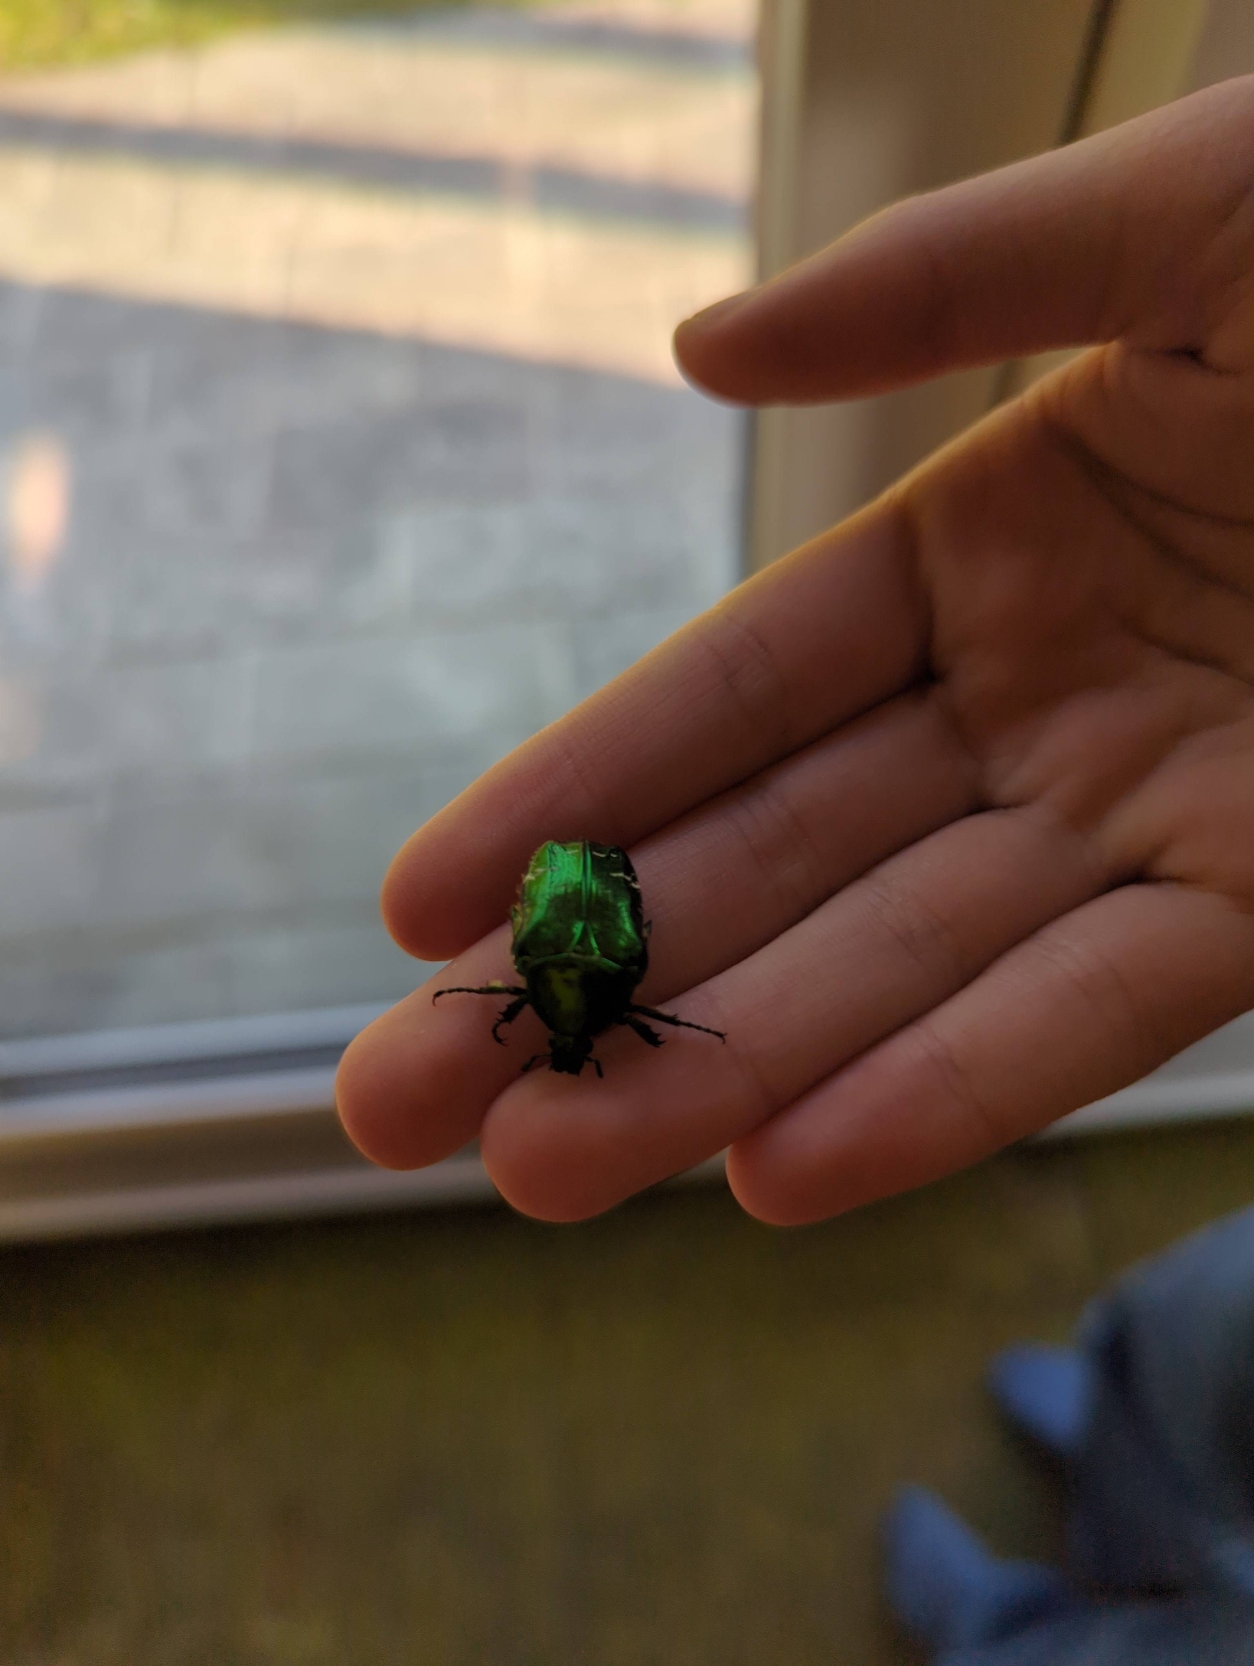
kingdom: Animalia
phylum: Arthropoda
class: Insecta
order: Coleoptera
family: Scarabaeidae
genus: Cetonia
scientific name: Cetonia aurata
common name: Grøn guldbasse
